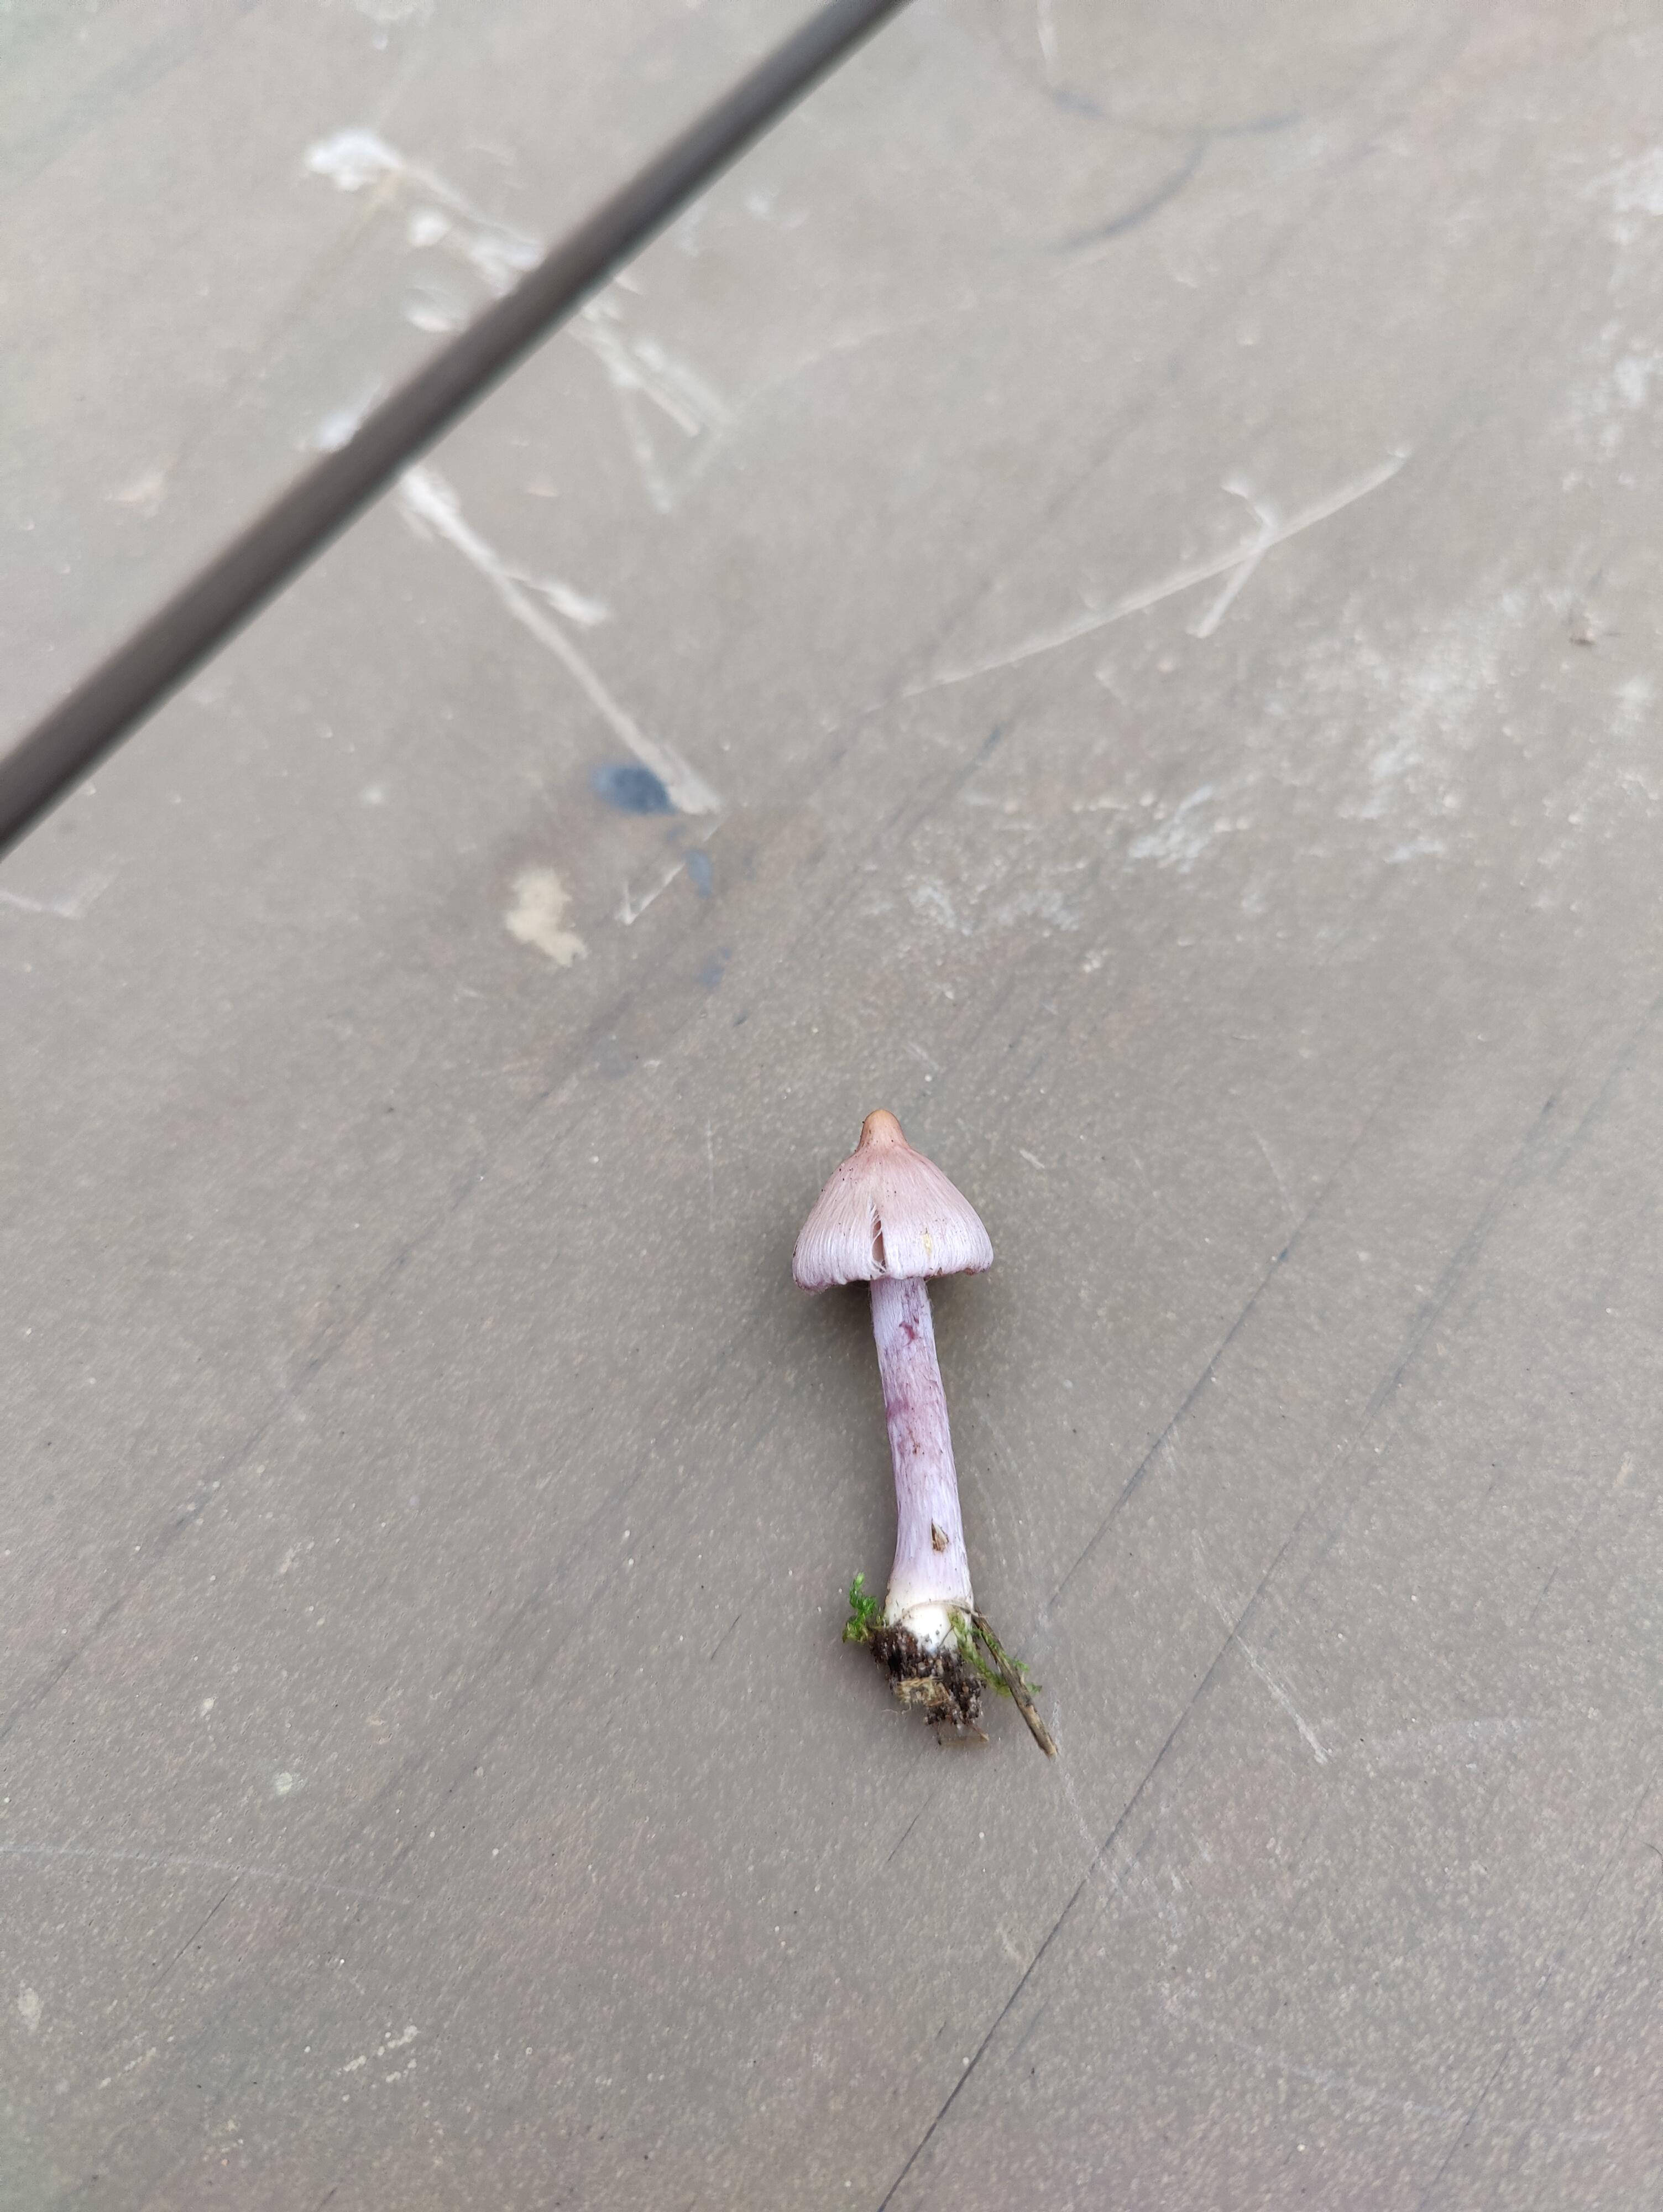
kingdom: Fungi
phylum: Basidiomycota
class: Agaricomycetes
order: Agaricales
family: Inocybaceae
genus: Inocybe
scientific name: Inocybe geophylla
